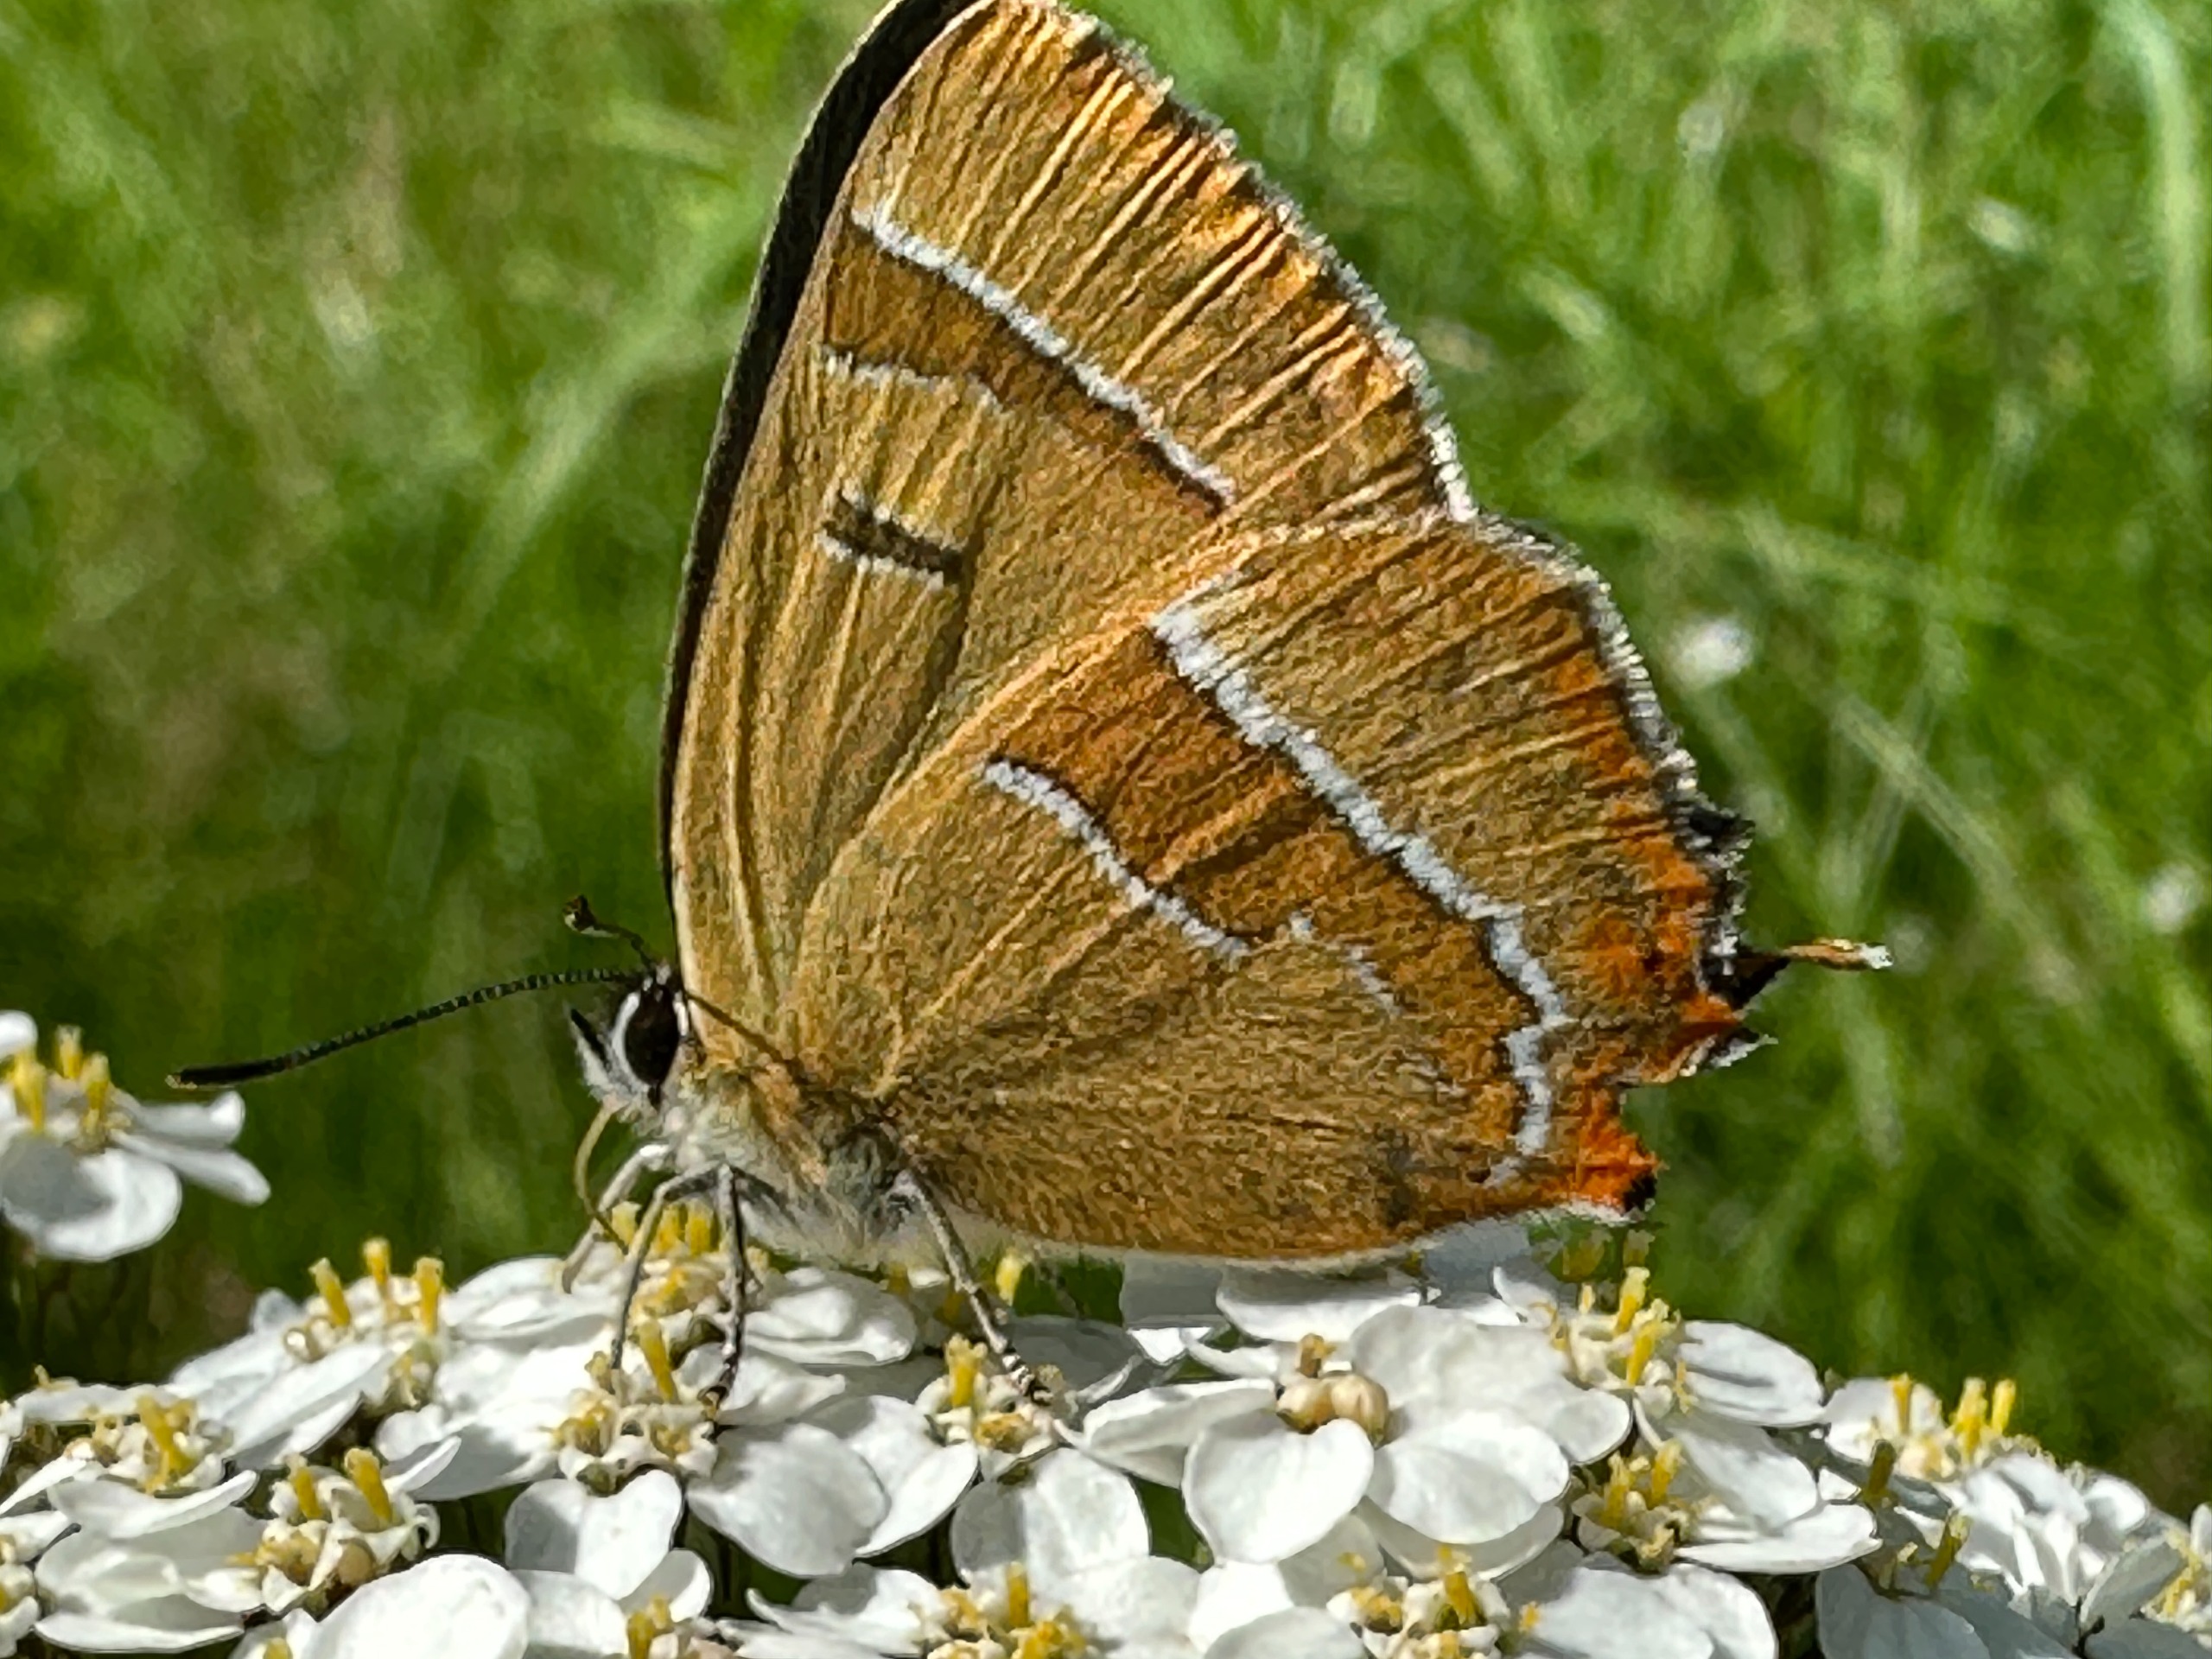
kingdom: Animalia
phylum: Arthropoda
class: Insecta
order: Lepidoptera
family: Lycaenidae
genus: Thecla
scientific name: Thecla betulae
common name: Guldhale
